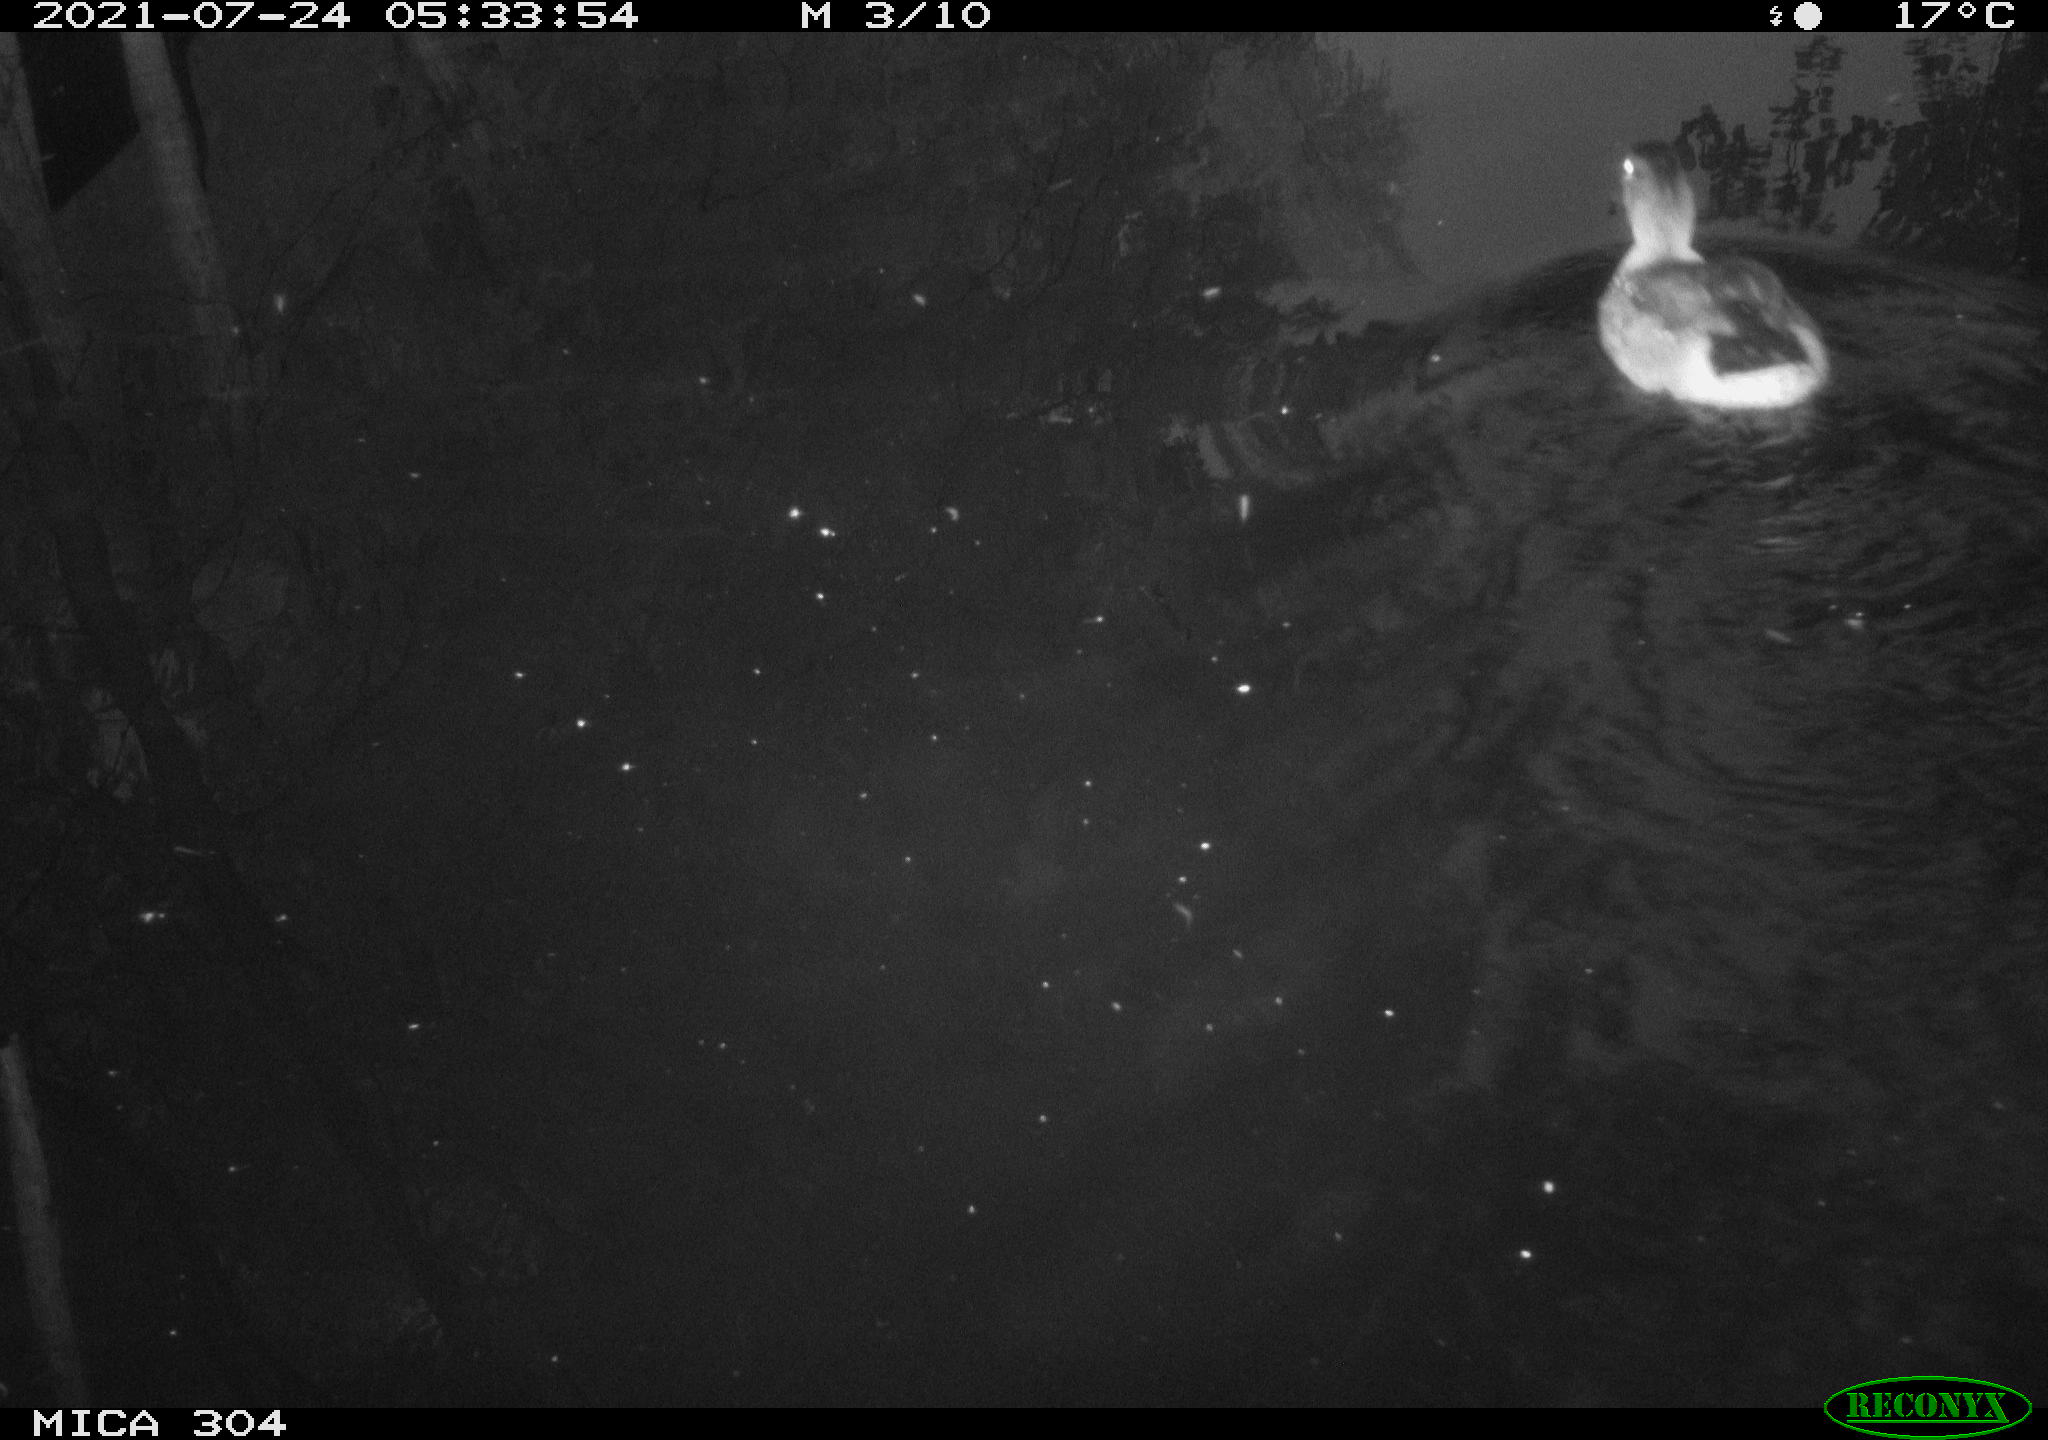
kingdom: Animalia
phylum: Chordata
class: Aves
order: Anseriformes
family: Anatidae
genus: Anas
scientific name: Anas platyrhynchos
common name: Mallard
